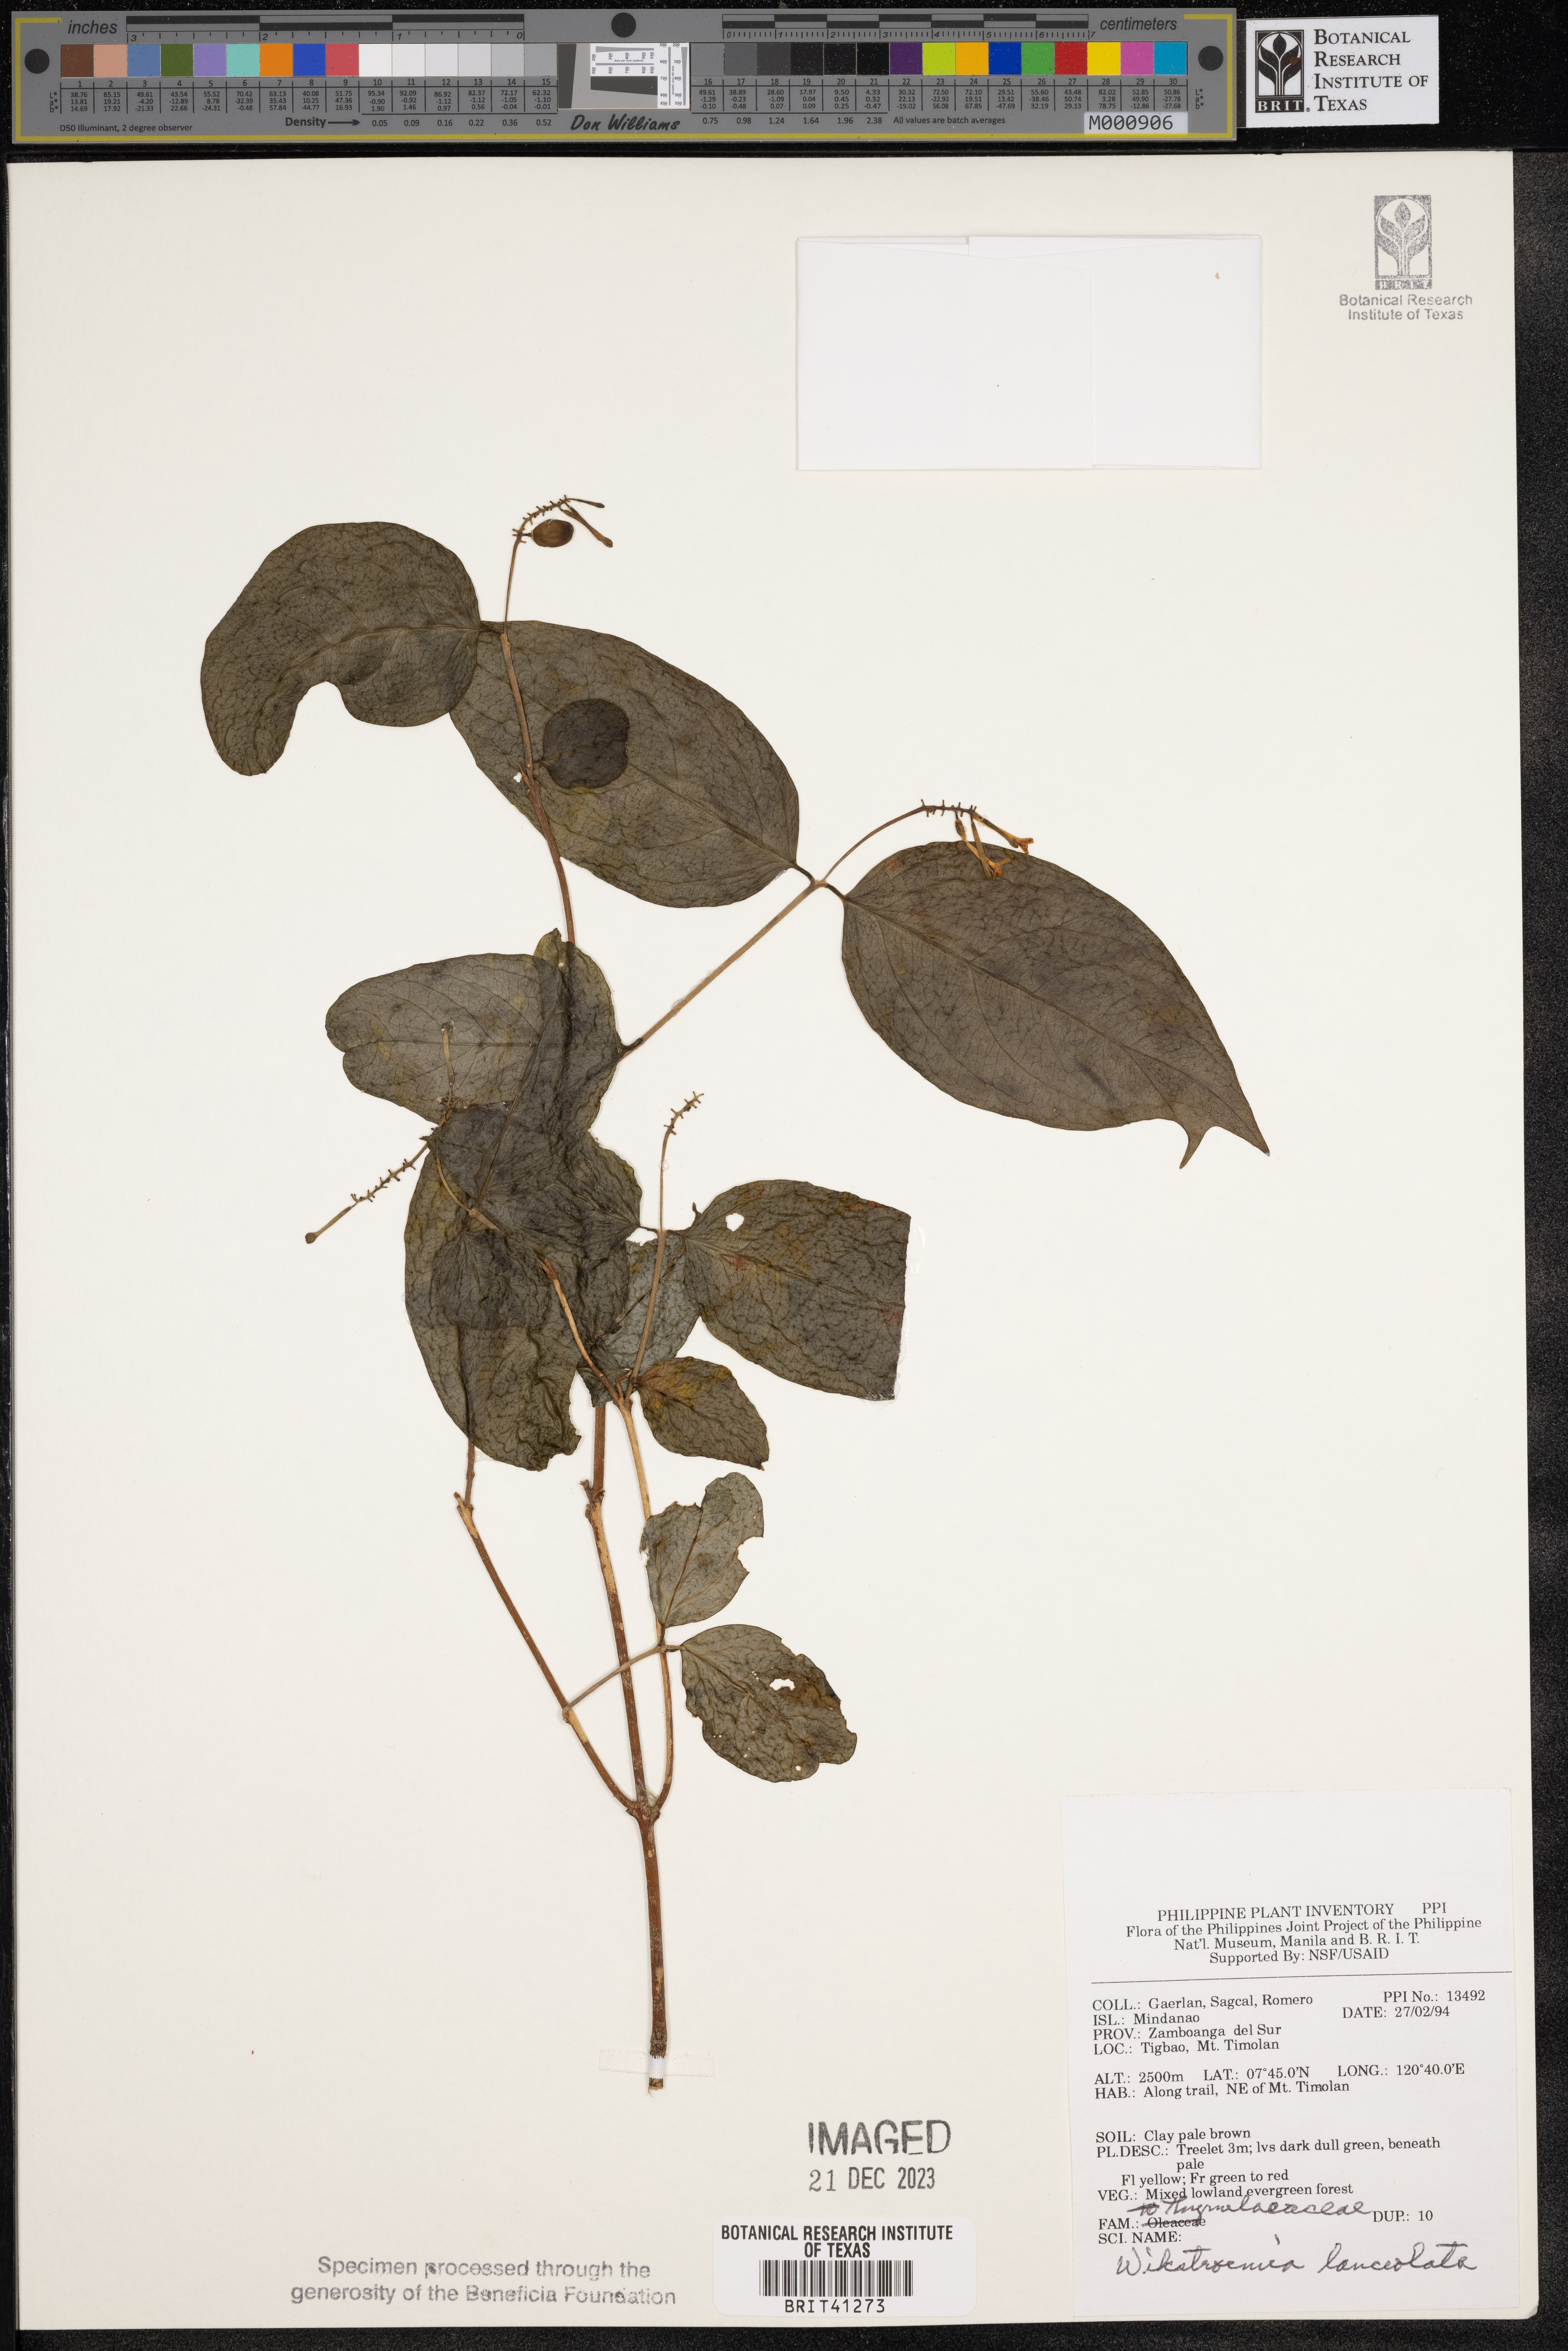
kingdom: Plantae
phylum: Tracheophyta
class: Magnoliopsida
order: Malvales
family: Thymelaeaceae
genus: Wikstroemia
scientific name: Wikstroemia lanceolata
